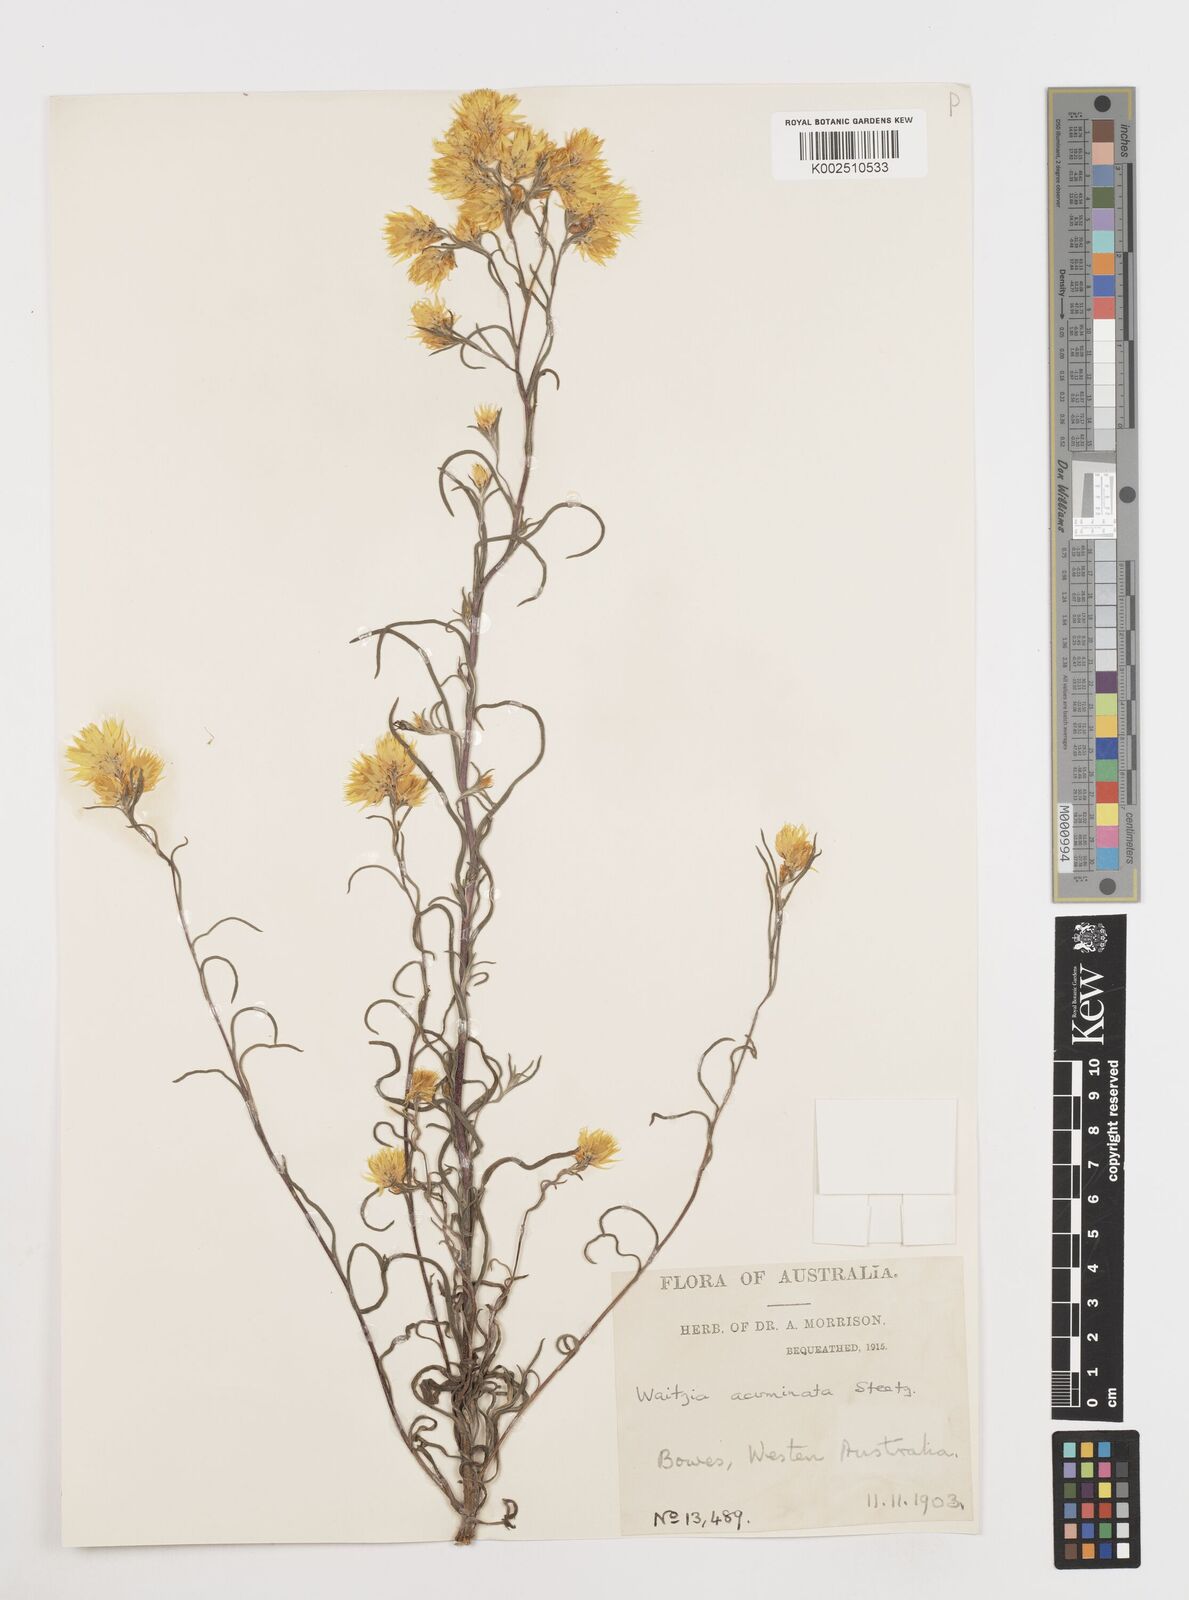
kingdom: Plantae
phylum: Tracheophyta
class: Magnoliopsida
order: Asterales
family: Asteraceae
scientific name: Asteraceae
